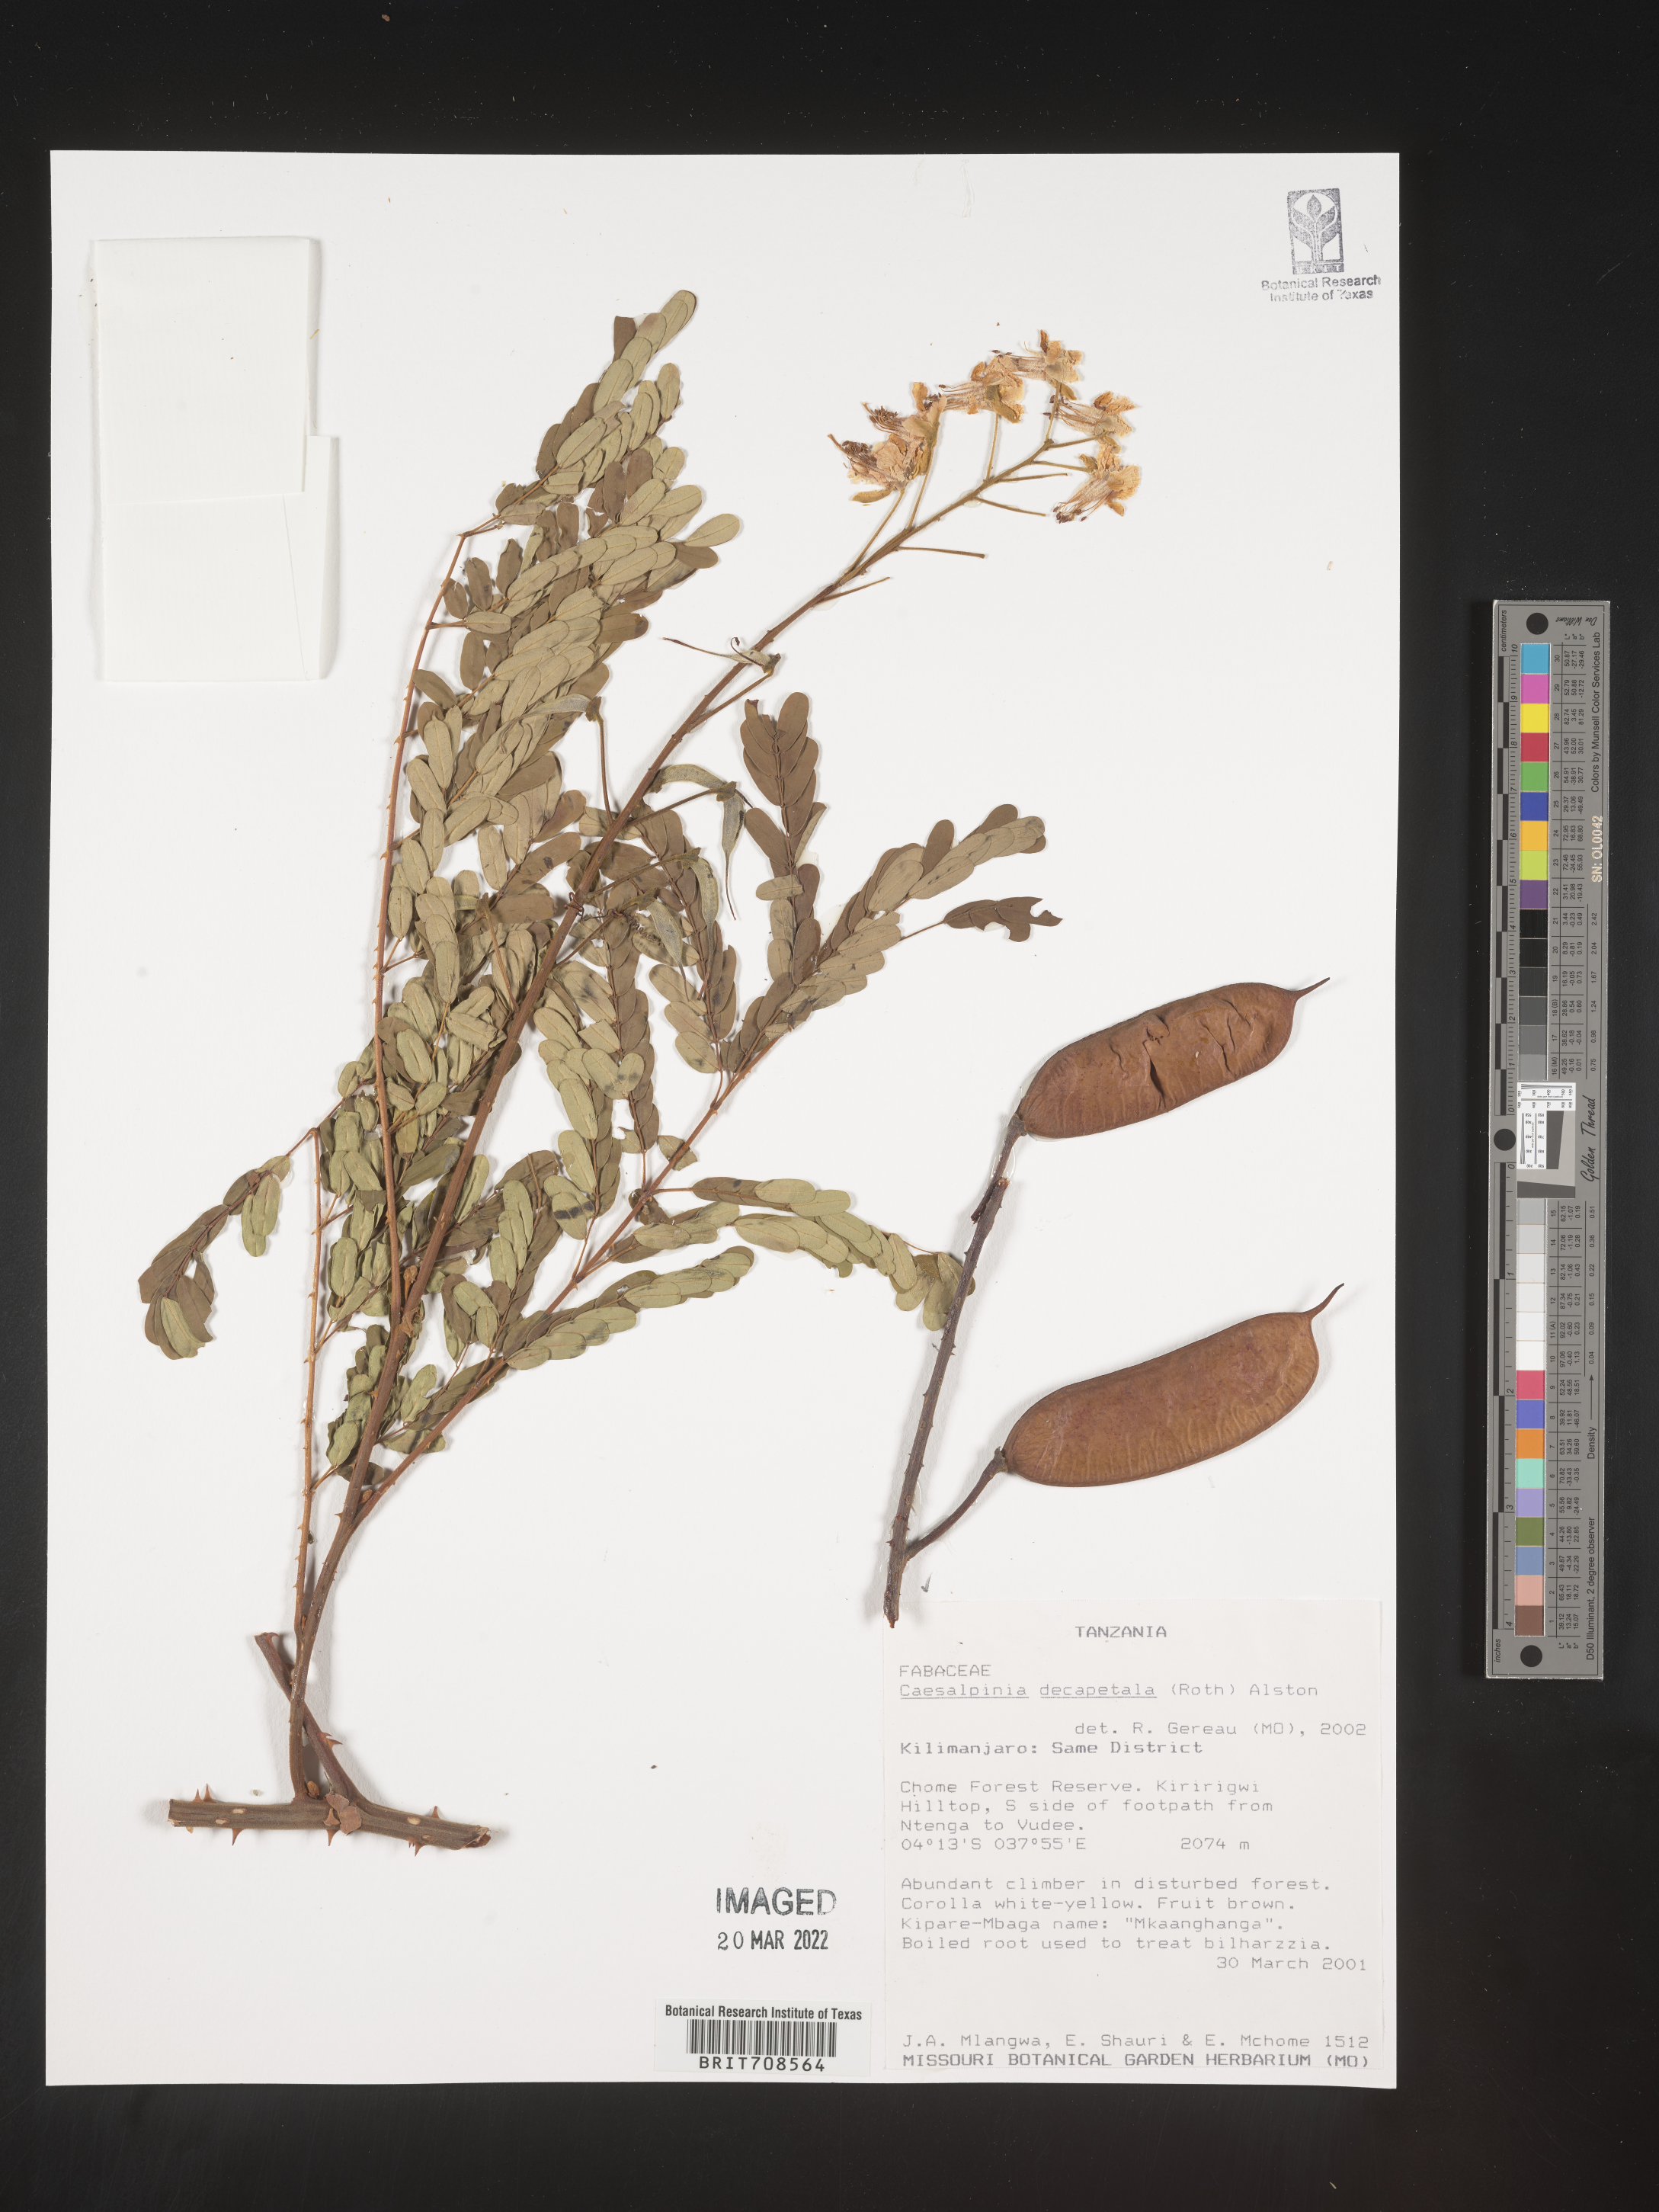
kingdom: Plantae
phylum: Tracheophyta
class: Magnoliopsida
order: Fabales
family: Fabaceae
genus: Caesalpinia
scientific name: Caesalpinia
